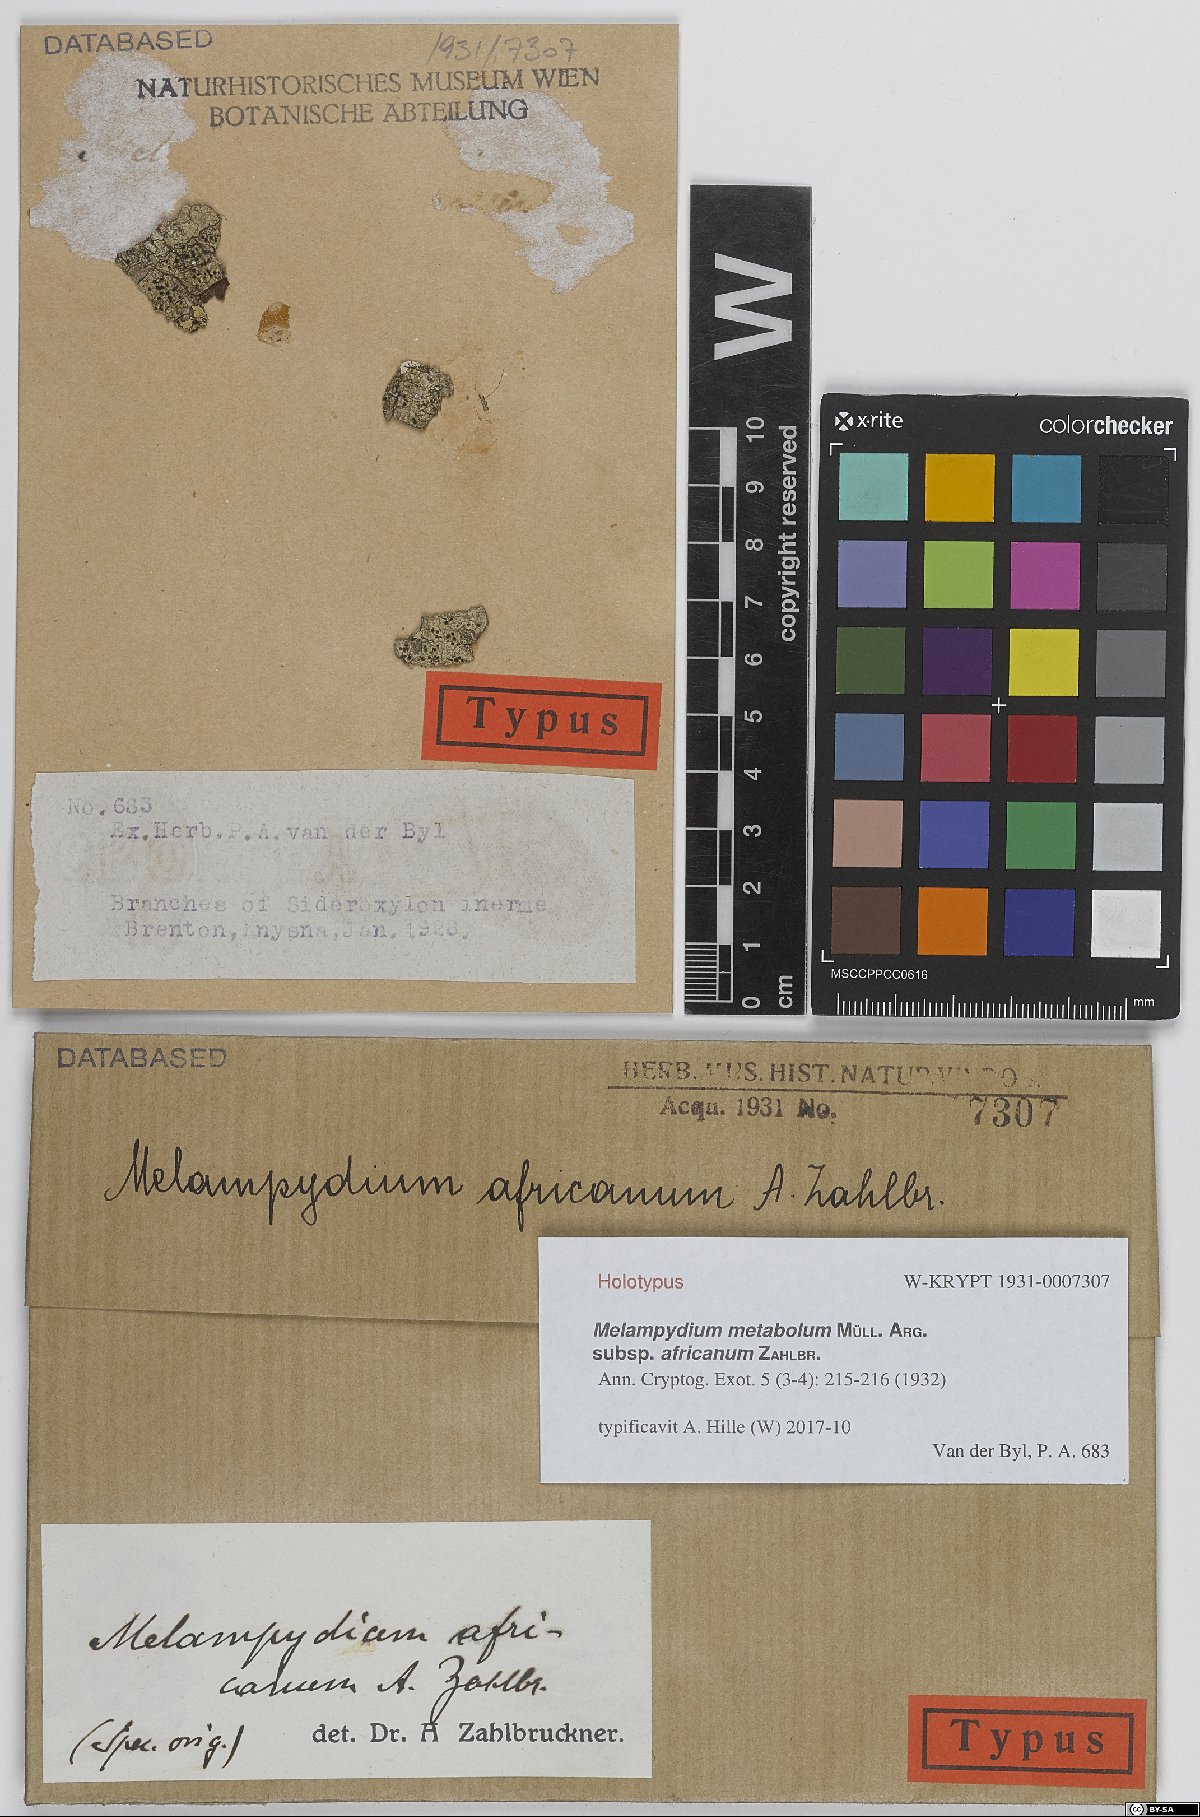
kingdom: Fungi
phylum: Ascomycota
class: Arthoniomycetes
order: Arthoniales
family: Roccellaceae
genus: Bactrospora
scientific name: Bactrospora metabola
